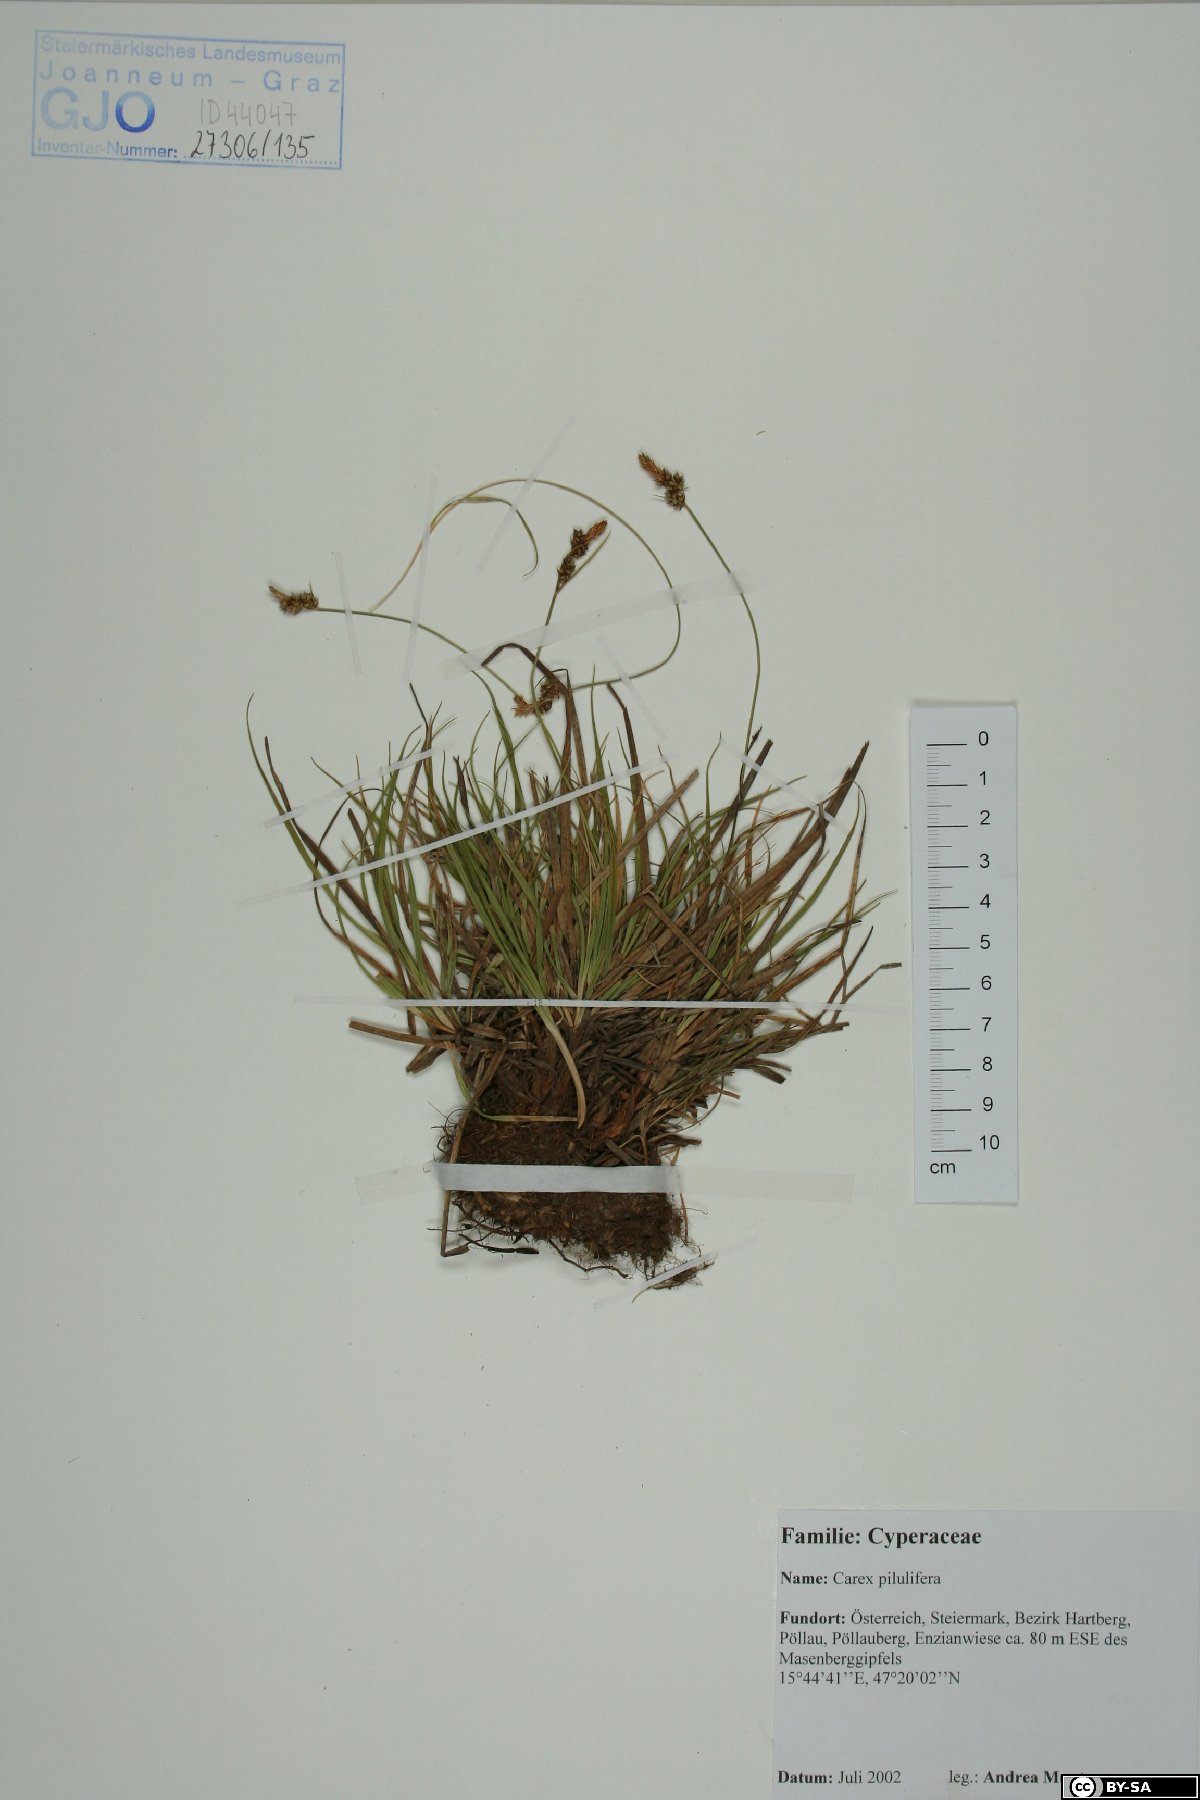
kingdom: Plantae
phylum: Tracheophyta
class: Liliopsida
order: Poales
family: Cyperaceae
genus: Carex
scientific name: Carex pilulifera
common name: Pill sedge
